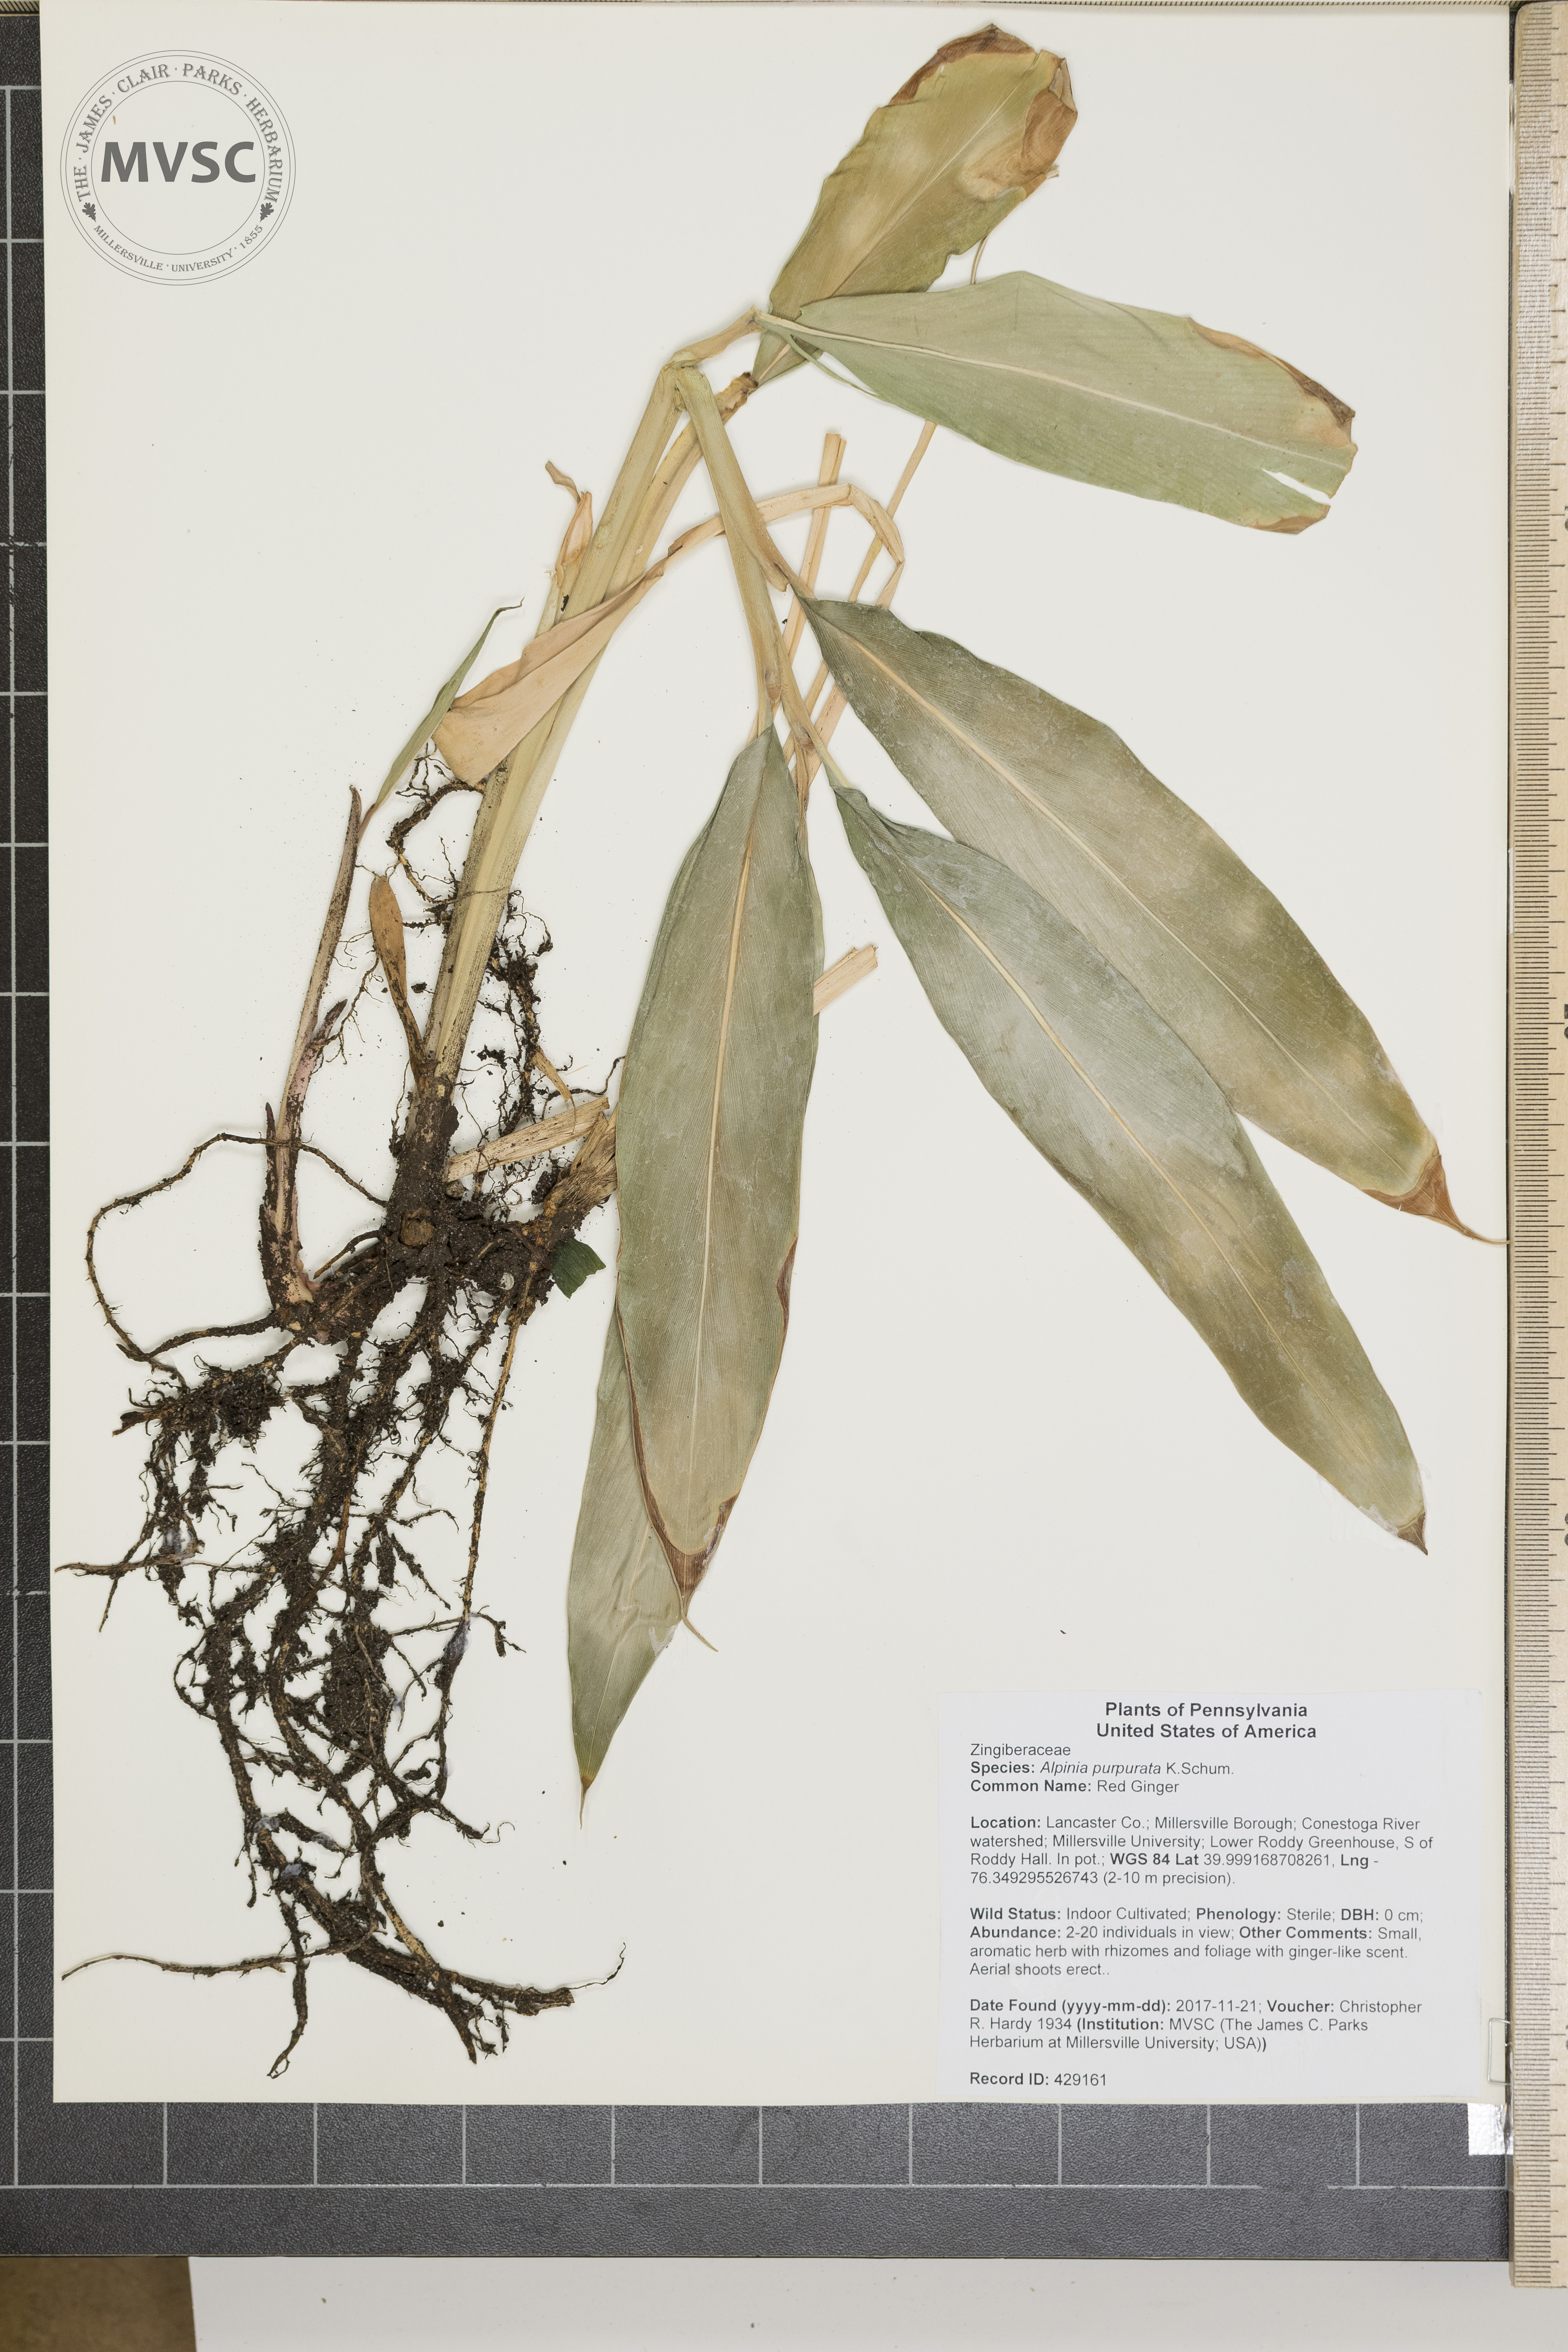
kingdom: Plantae
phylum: Tracheophyta
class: Liliopsida
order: Zingiberales
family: Zingiberaceae
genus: Alpinia
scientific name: Alpinia purpurata
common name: Red Ginger
